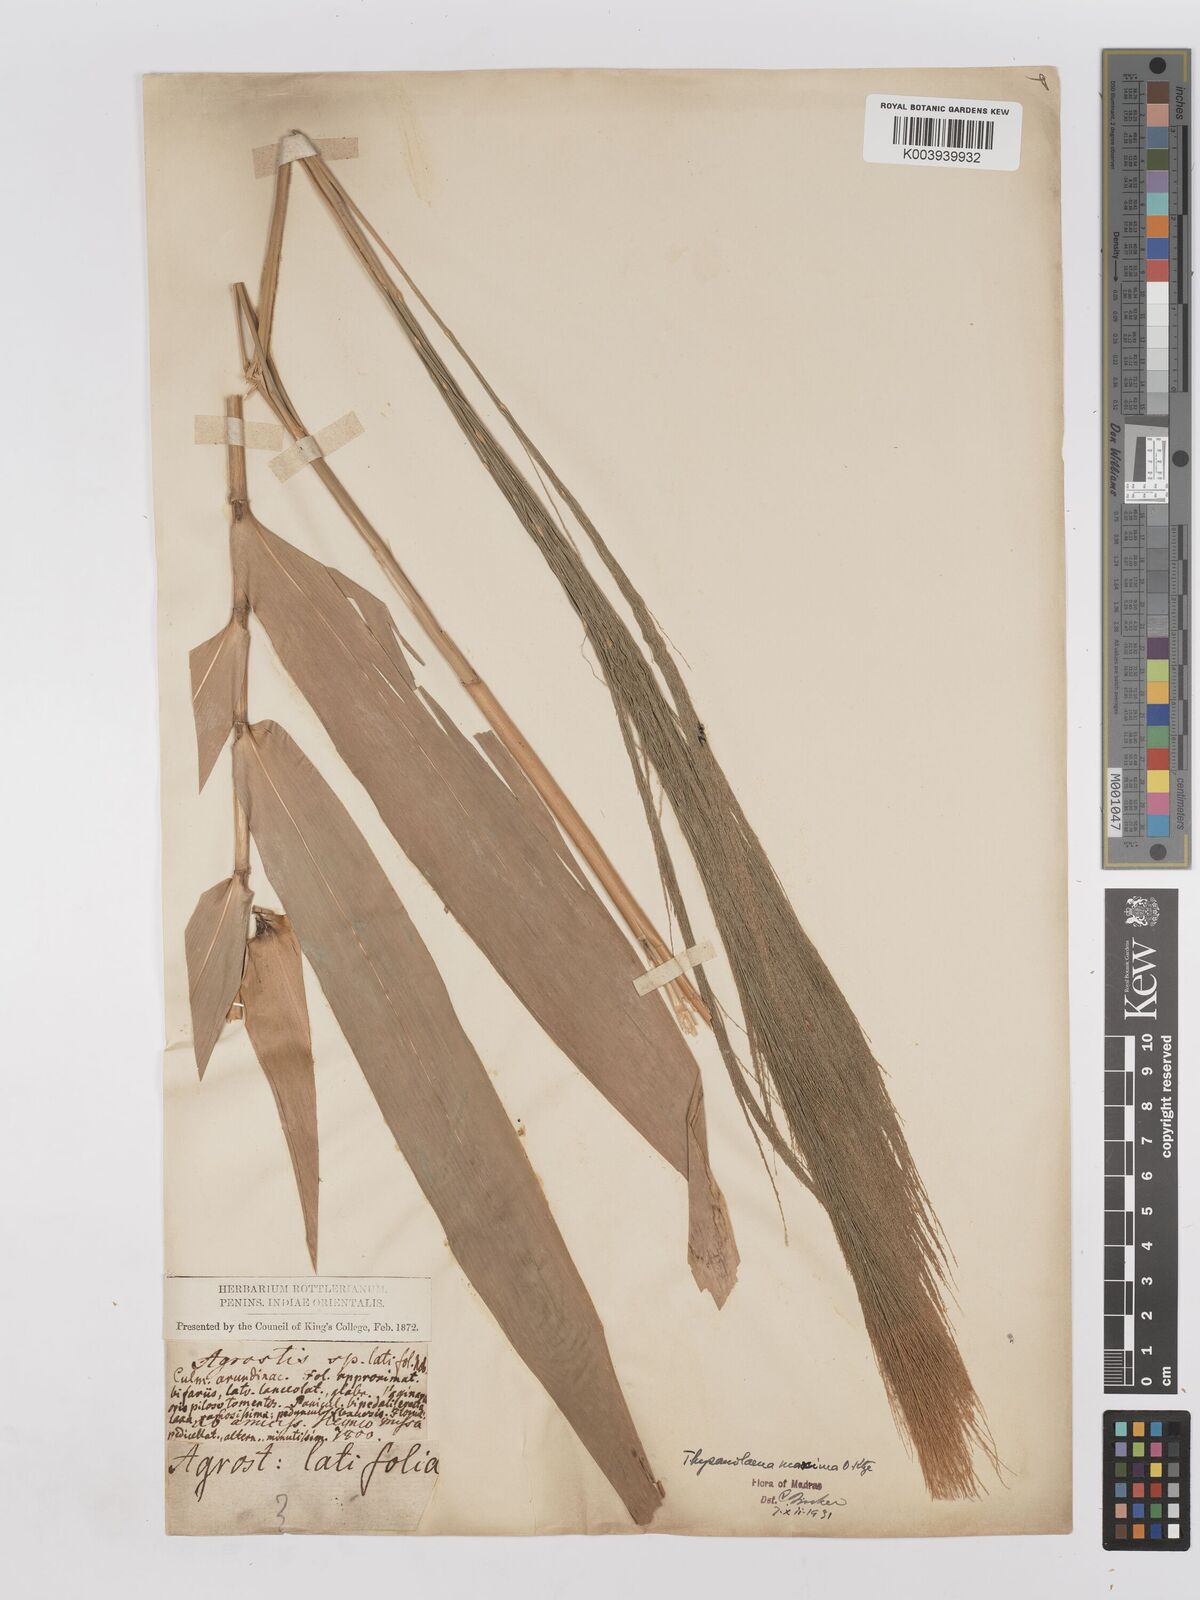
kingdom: Plantae
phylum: Tracheophyta
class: Liliopsida
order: Poales
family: Poaceae
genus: Thysanolaena
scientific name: Thysanolaena latifolia
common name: Tiger grass
